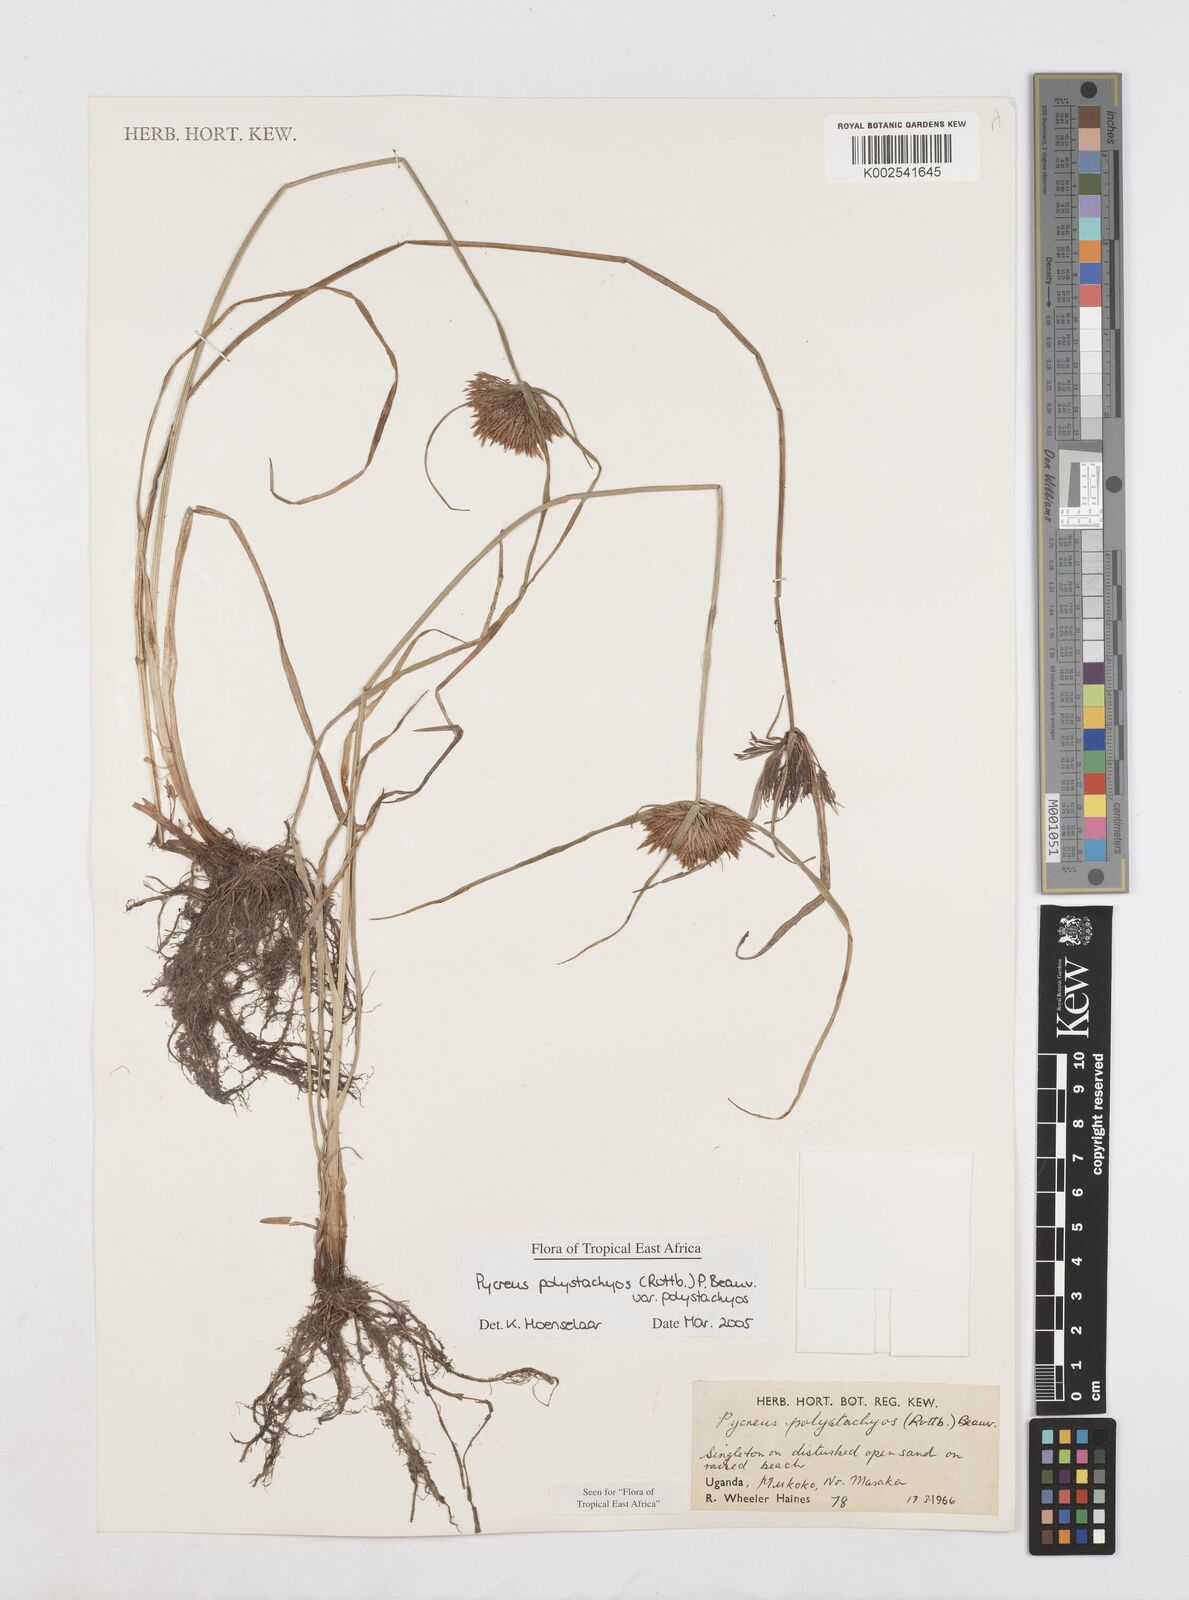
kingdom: Plantae
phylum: Tracheophyta
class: Liliopsida
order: Poales
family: Cyperaceae
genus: Cyperus
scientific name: Cyperus polystachyos
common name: Bunchy flat sedge
